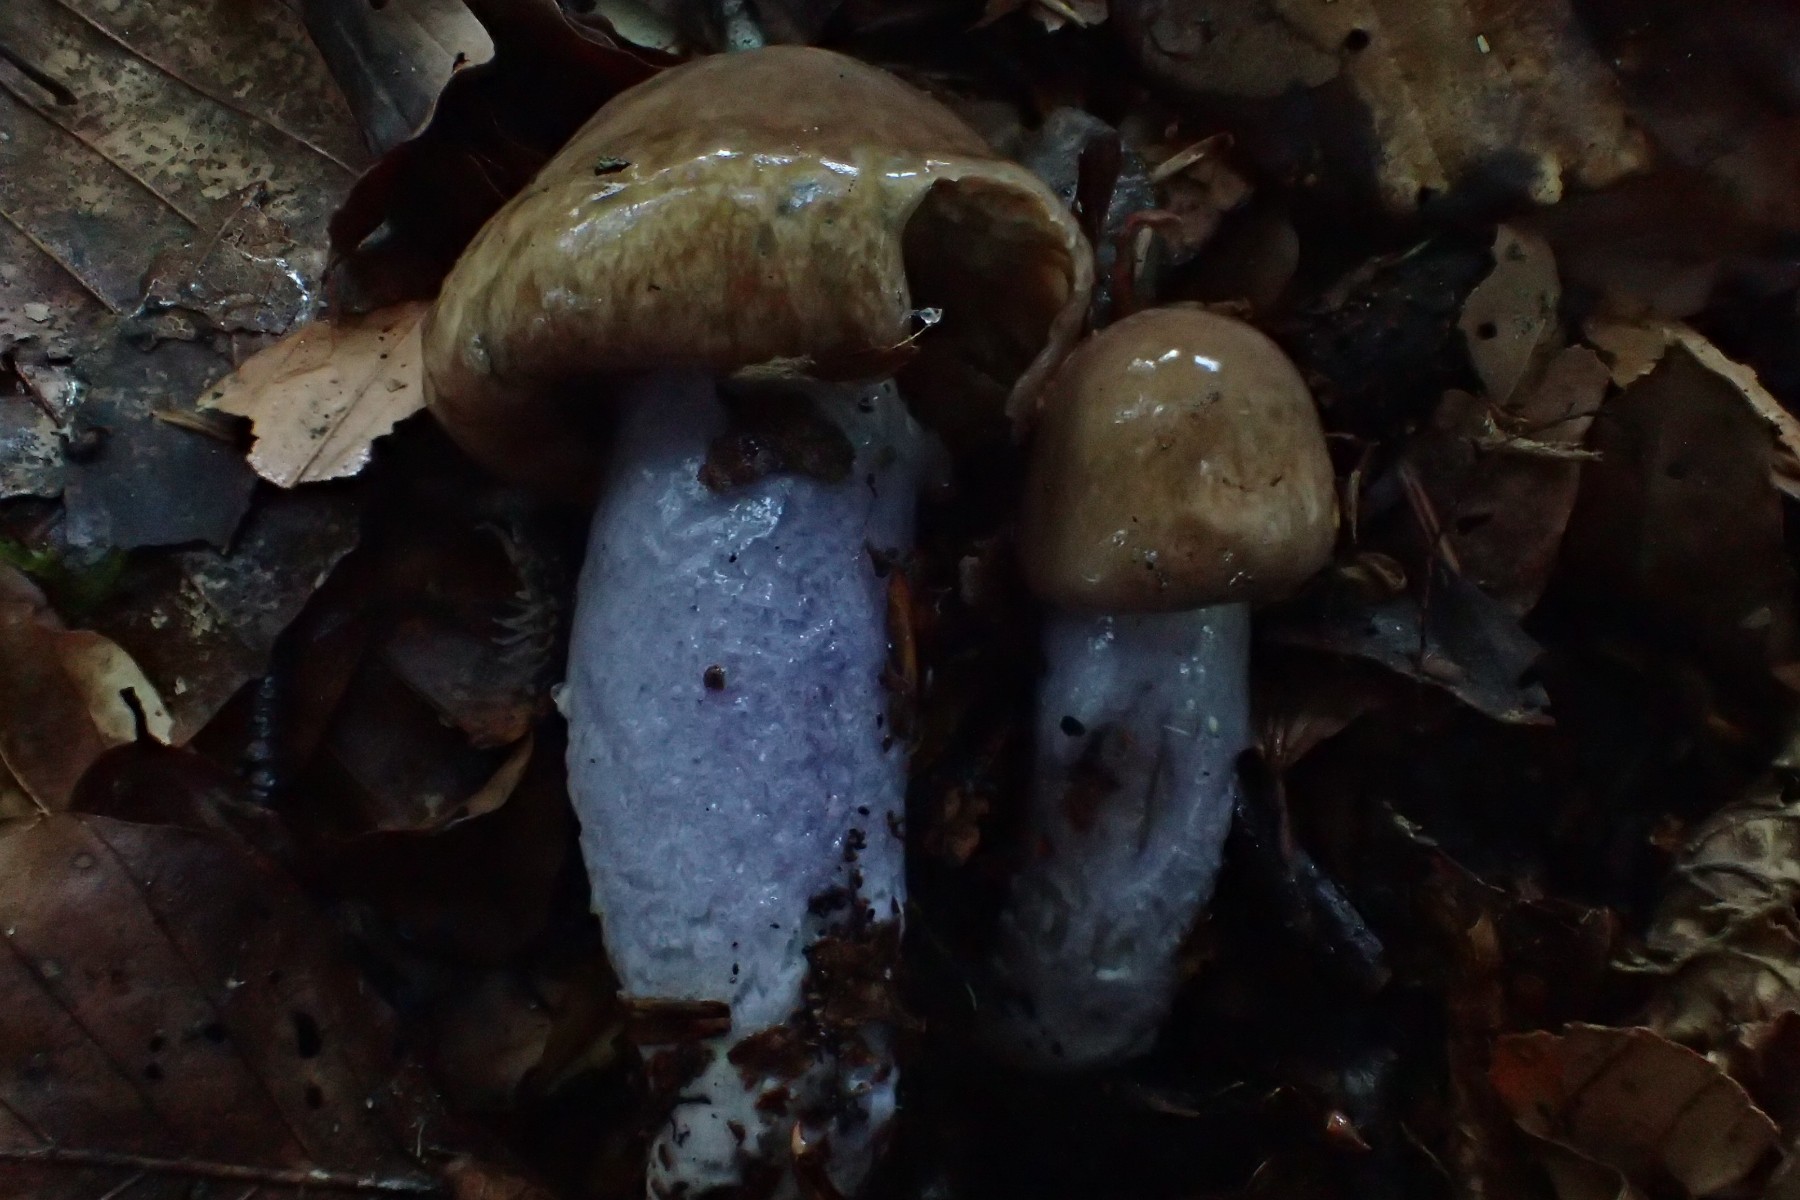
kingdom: Fungi
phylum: Basidiomycota
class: Agaricomycetes
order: Agaricales
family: Cortinariaceae
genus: Cortinarius
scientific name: Cortinarius elatior
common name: høj slørhat
